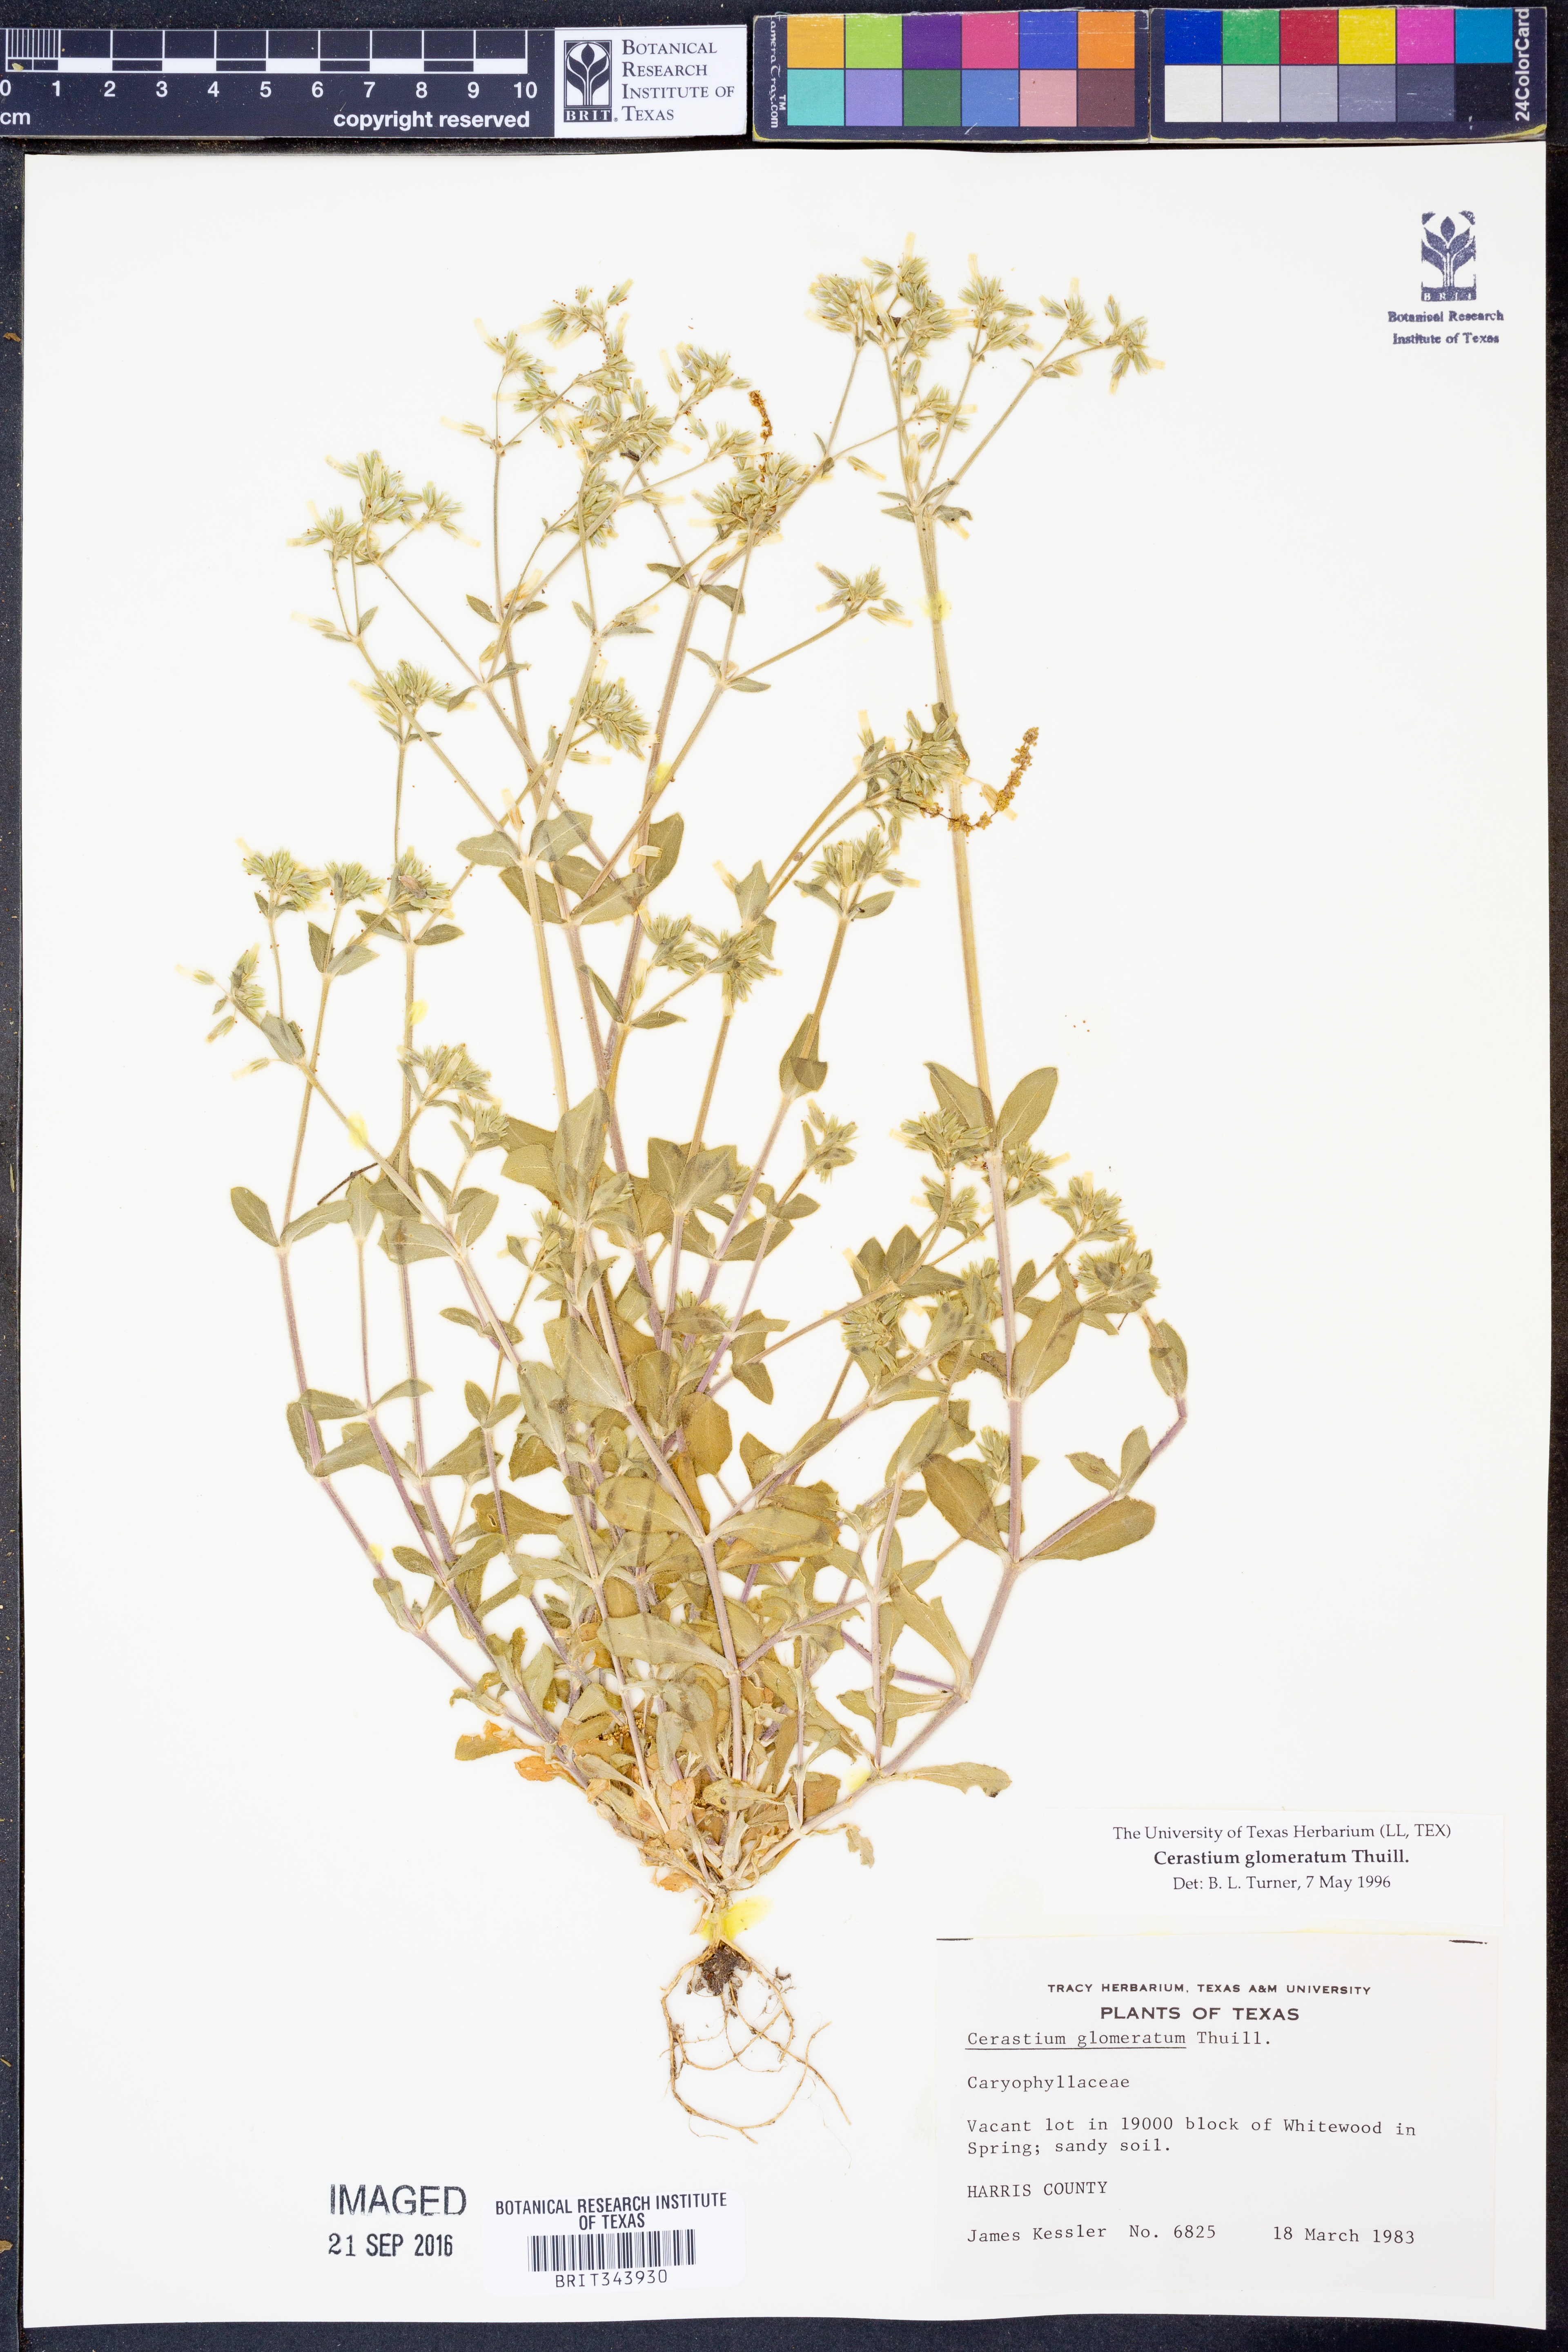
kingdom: Plantae
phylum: Tracheophyta
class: Magnoliopsida
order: Caryophyllales
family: Caryophyllaceae
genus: Cerastium
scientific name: Cerastium glomeratum
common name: Sticky chickweed
